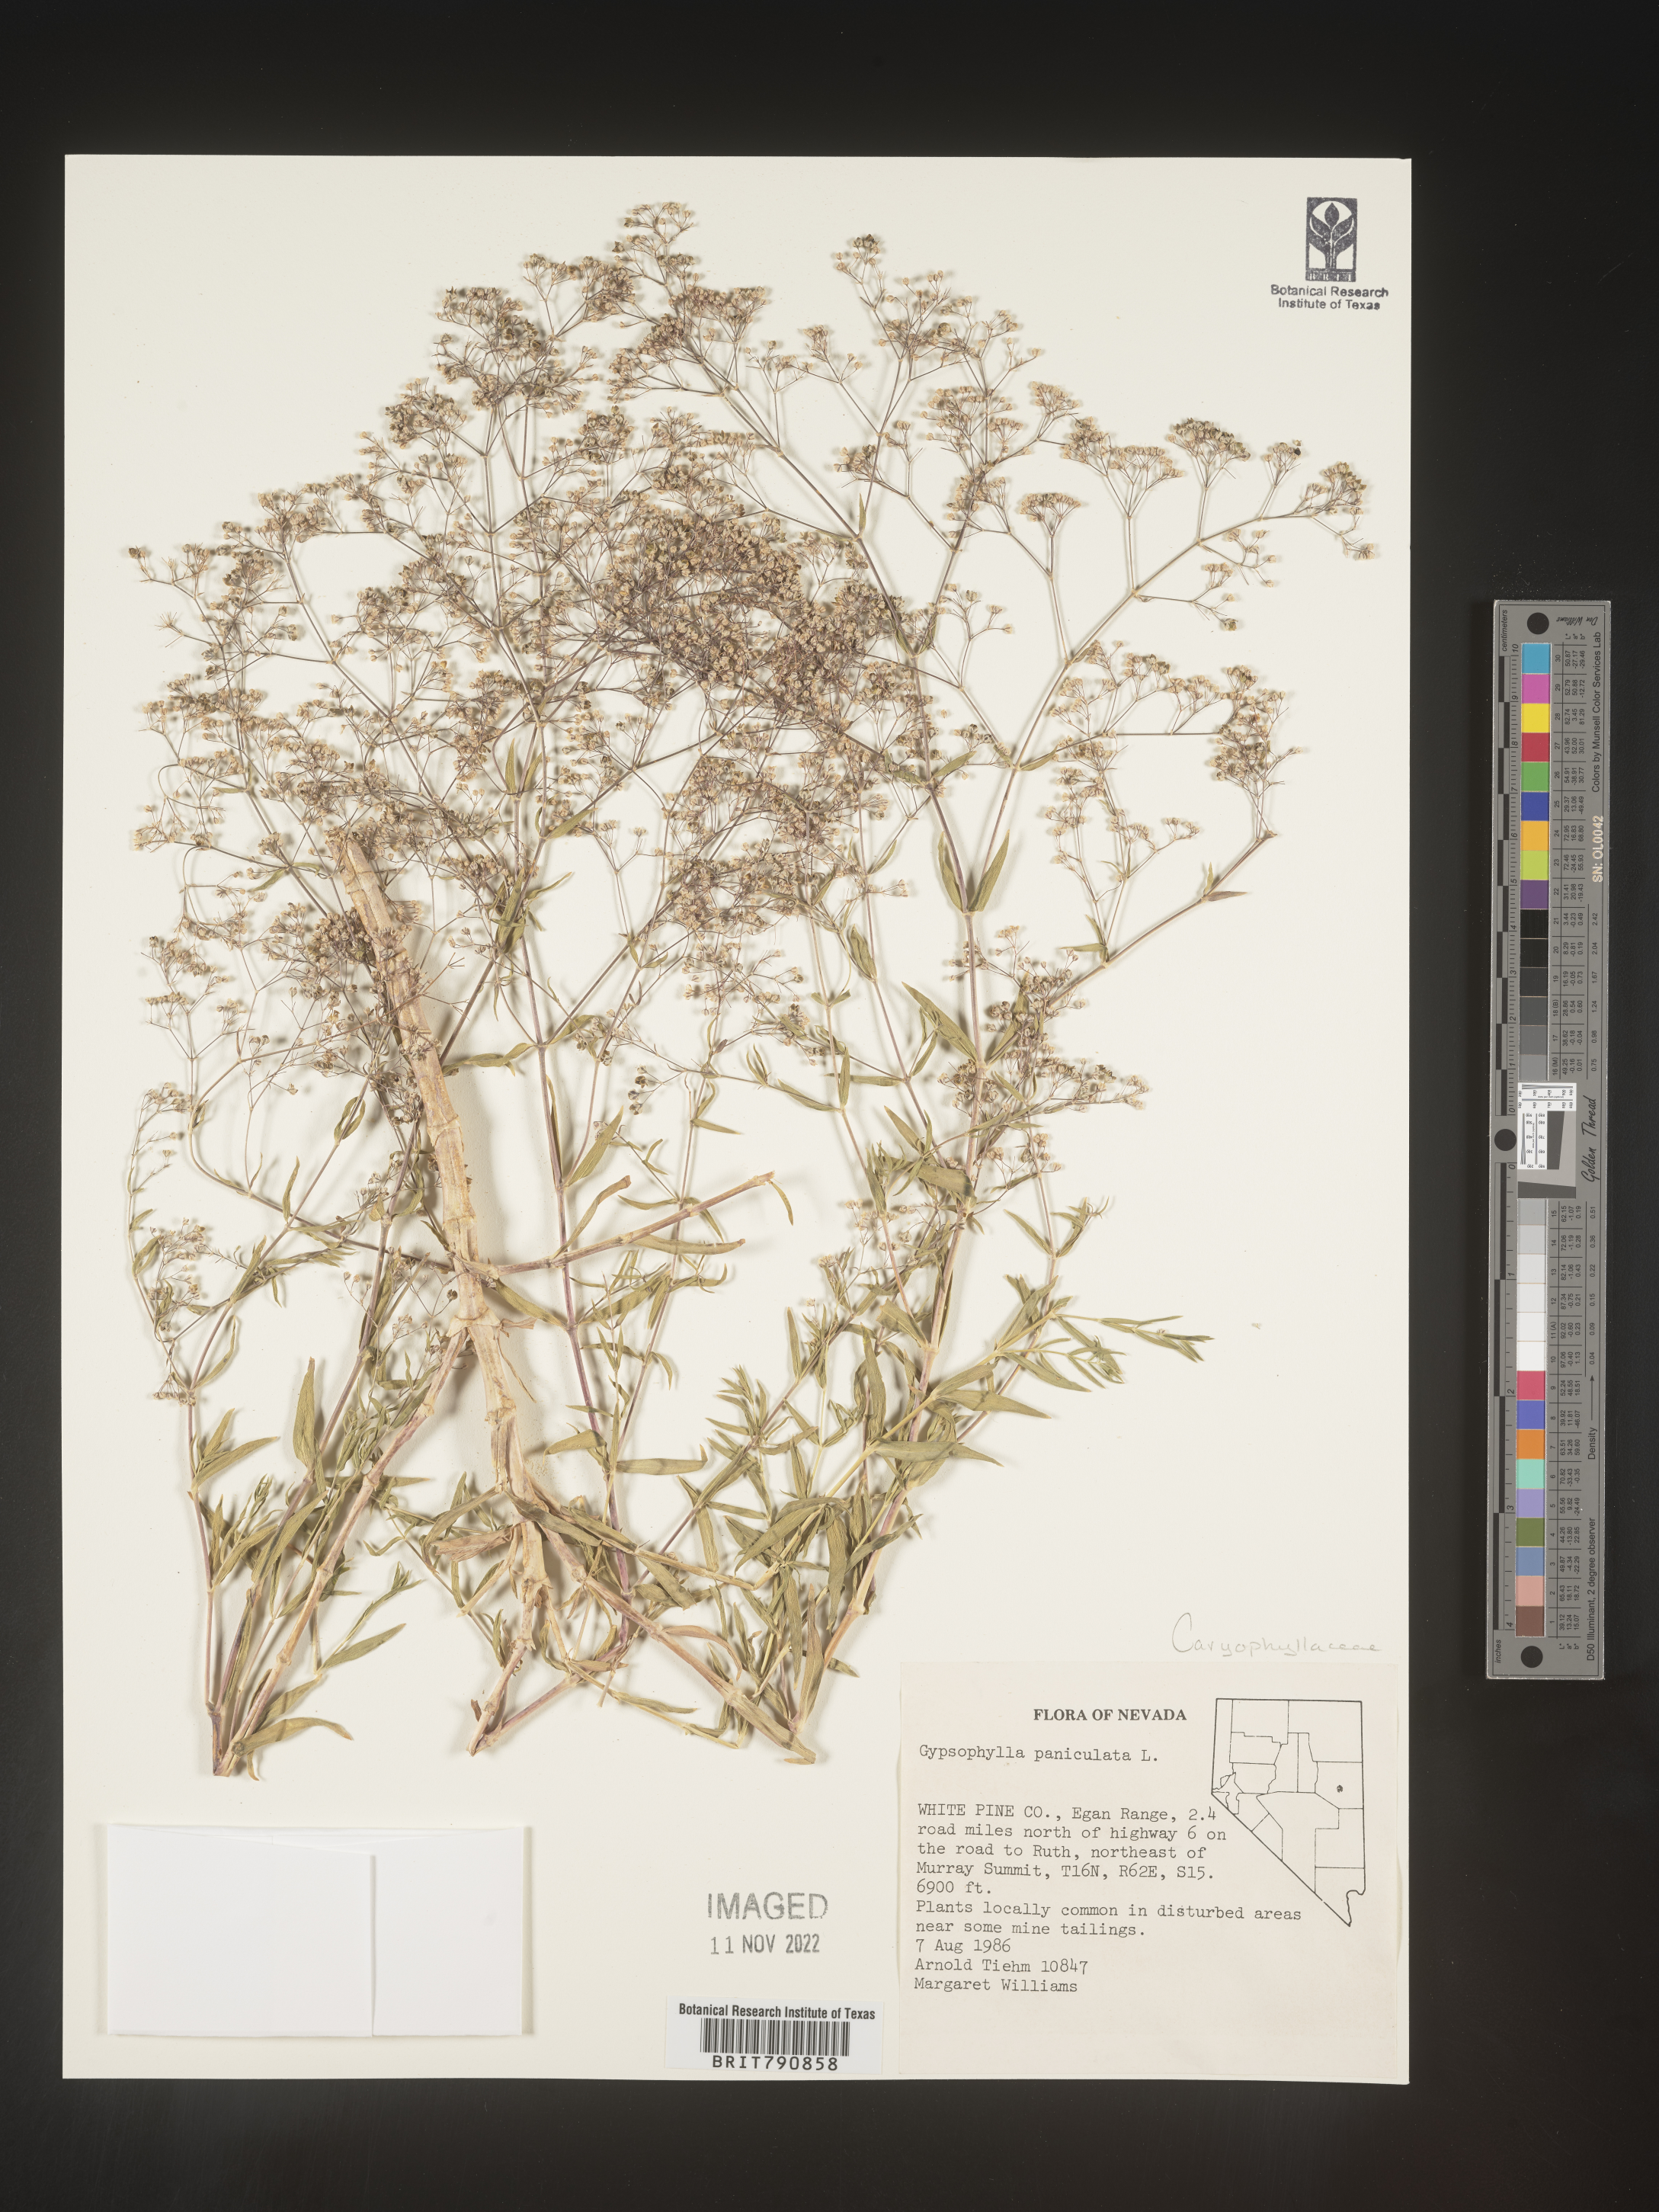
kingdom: Plantae
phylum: Tracheophyta
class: Magnoliopsida
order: Caryophyllales
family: Caryophyllaceae
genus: Gypsophila
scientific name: Gypsophila
